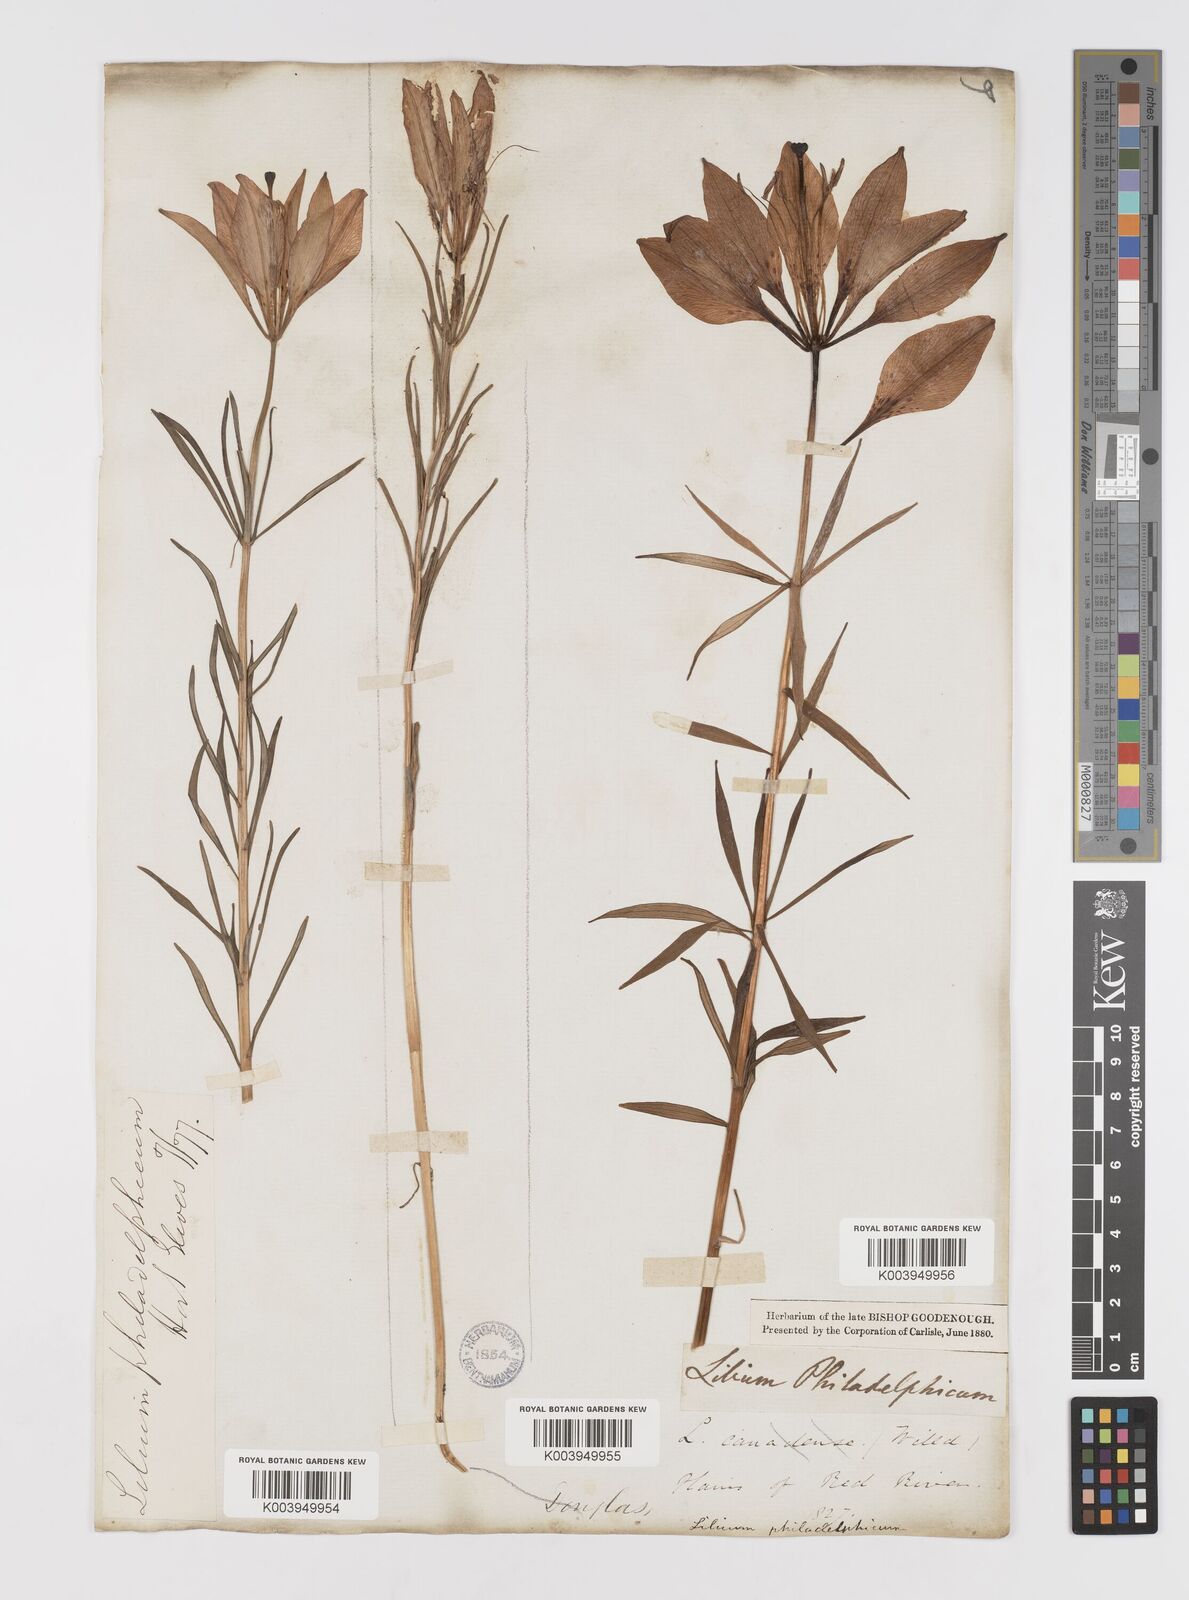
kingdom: Plantae
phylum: Tracheophyta
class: Liliopsida
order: Liliales
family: Liliaceae
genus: Lilium
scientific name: Lilium philadelphicum
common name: Red lily
